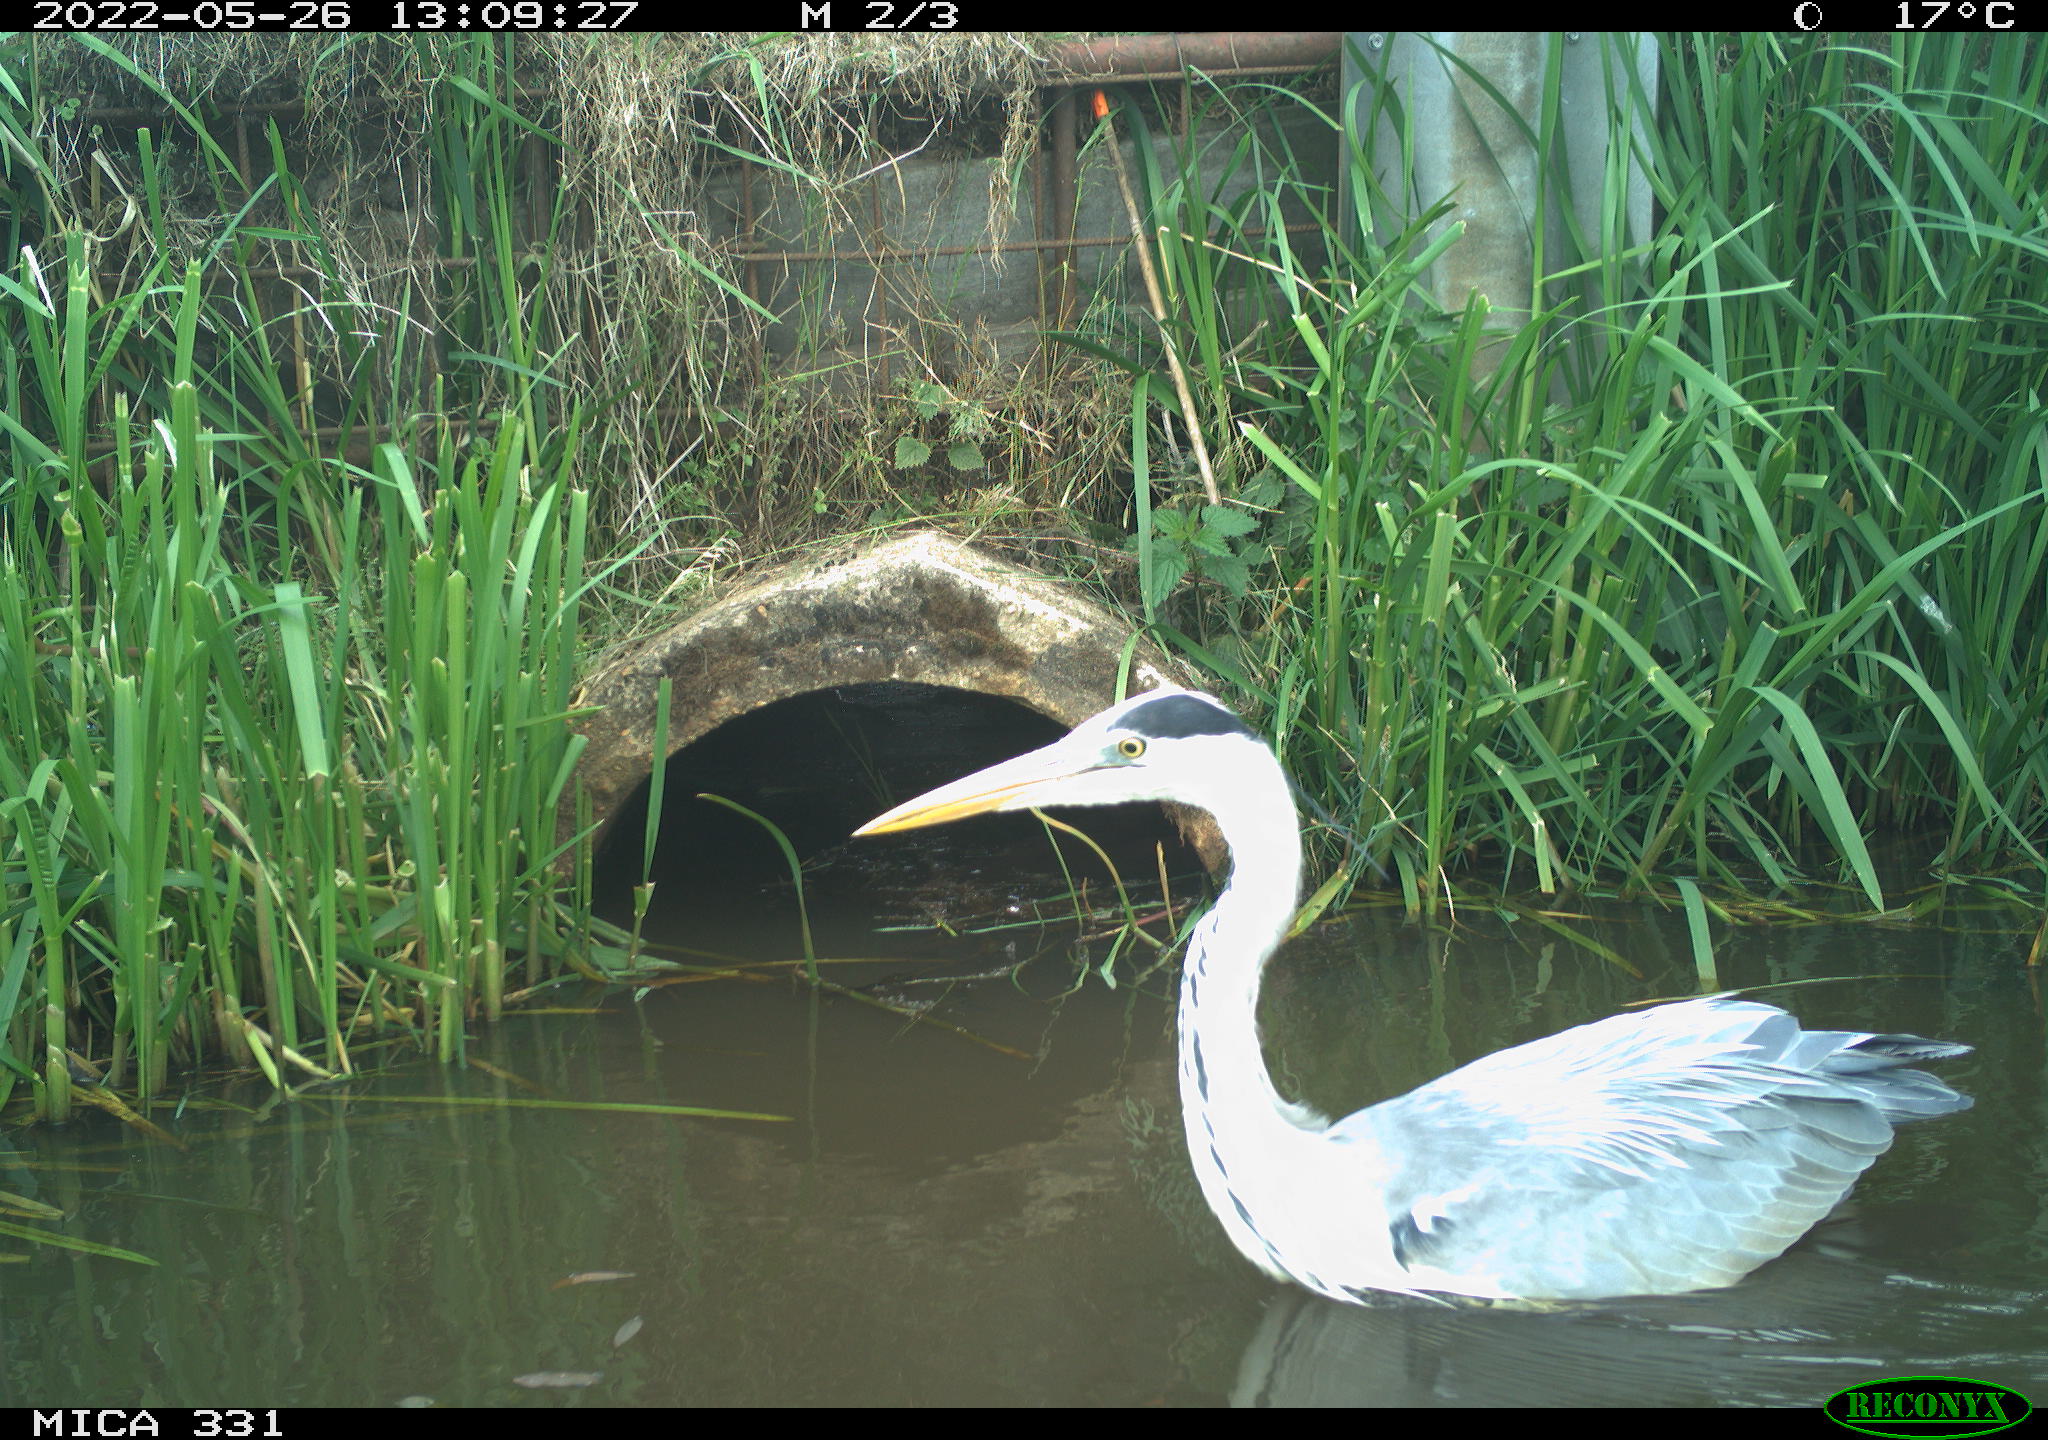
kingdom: Animalia
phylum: Chordata
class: Aves
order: Pelecaniformes
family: Ardeidae
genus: Ardea
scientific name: Ardea cinerea
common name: Grey heron
